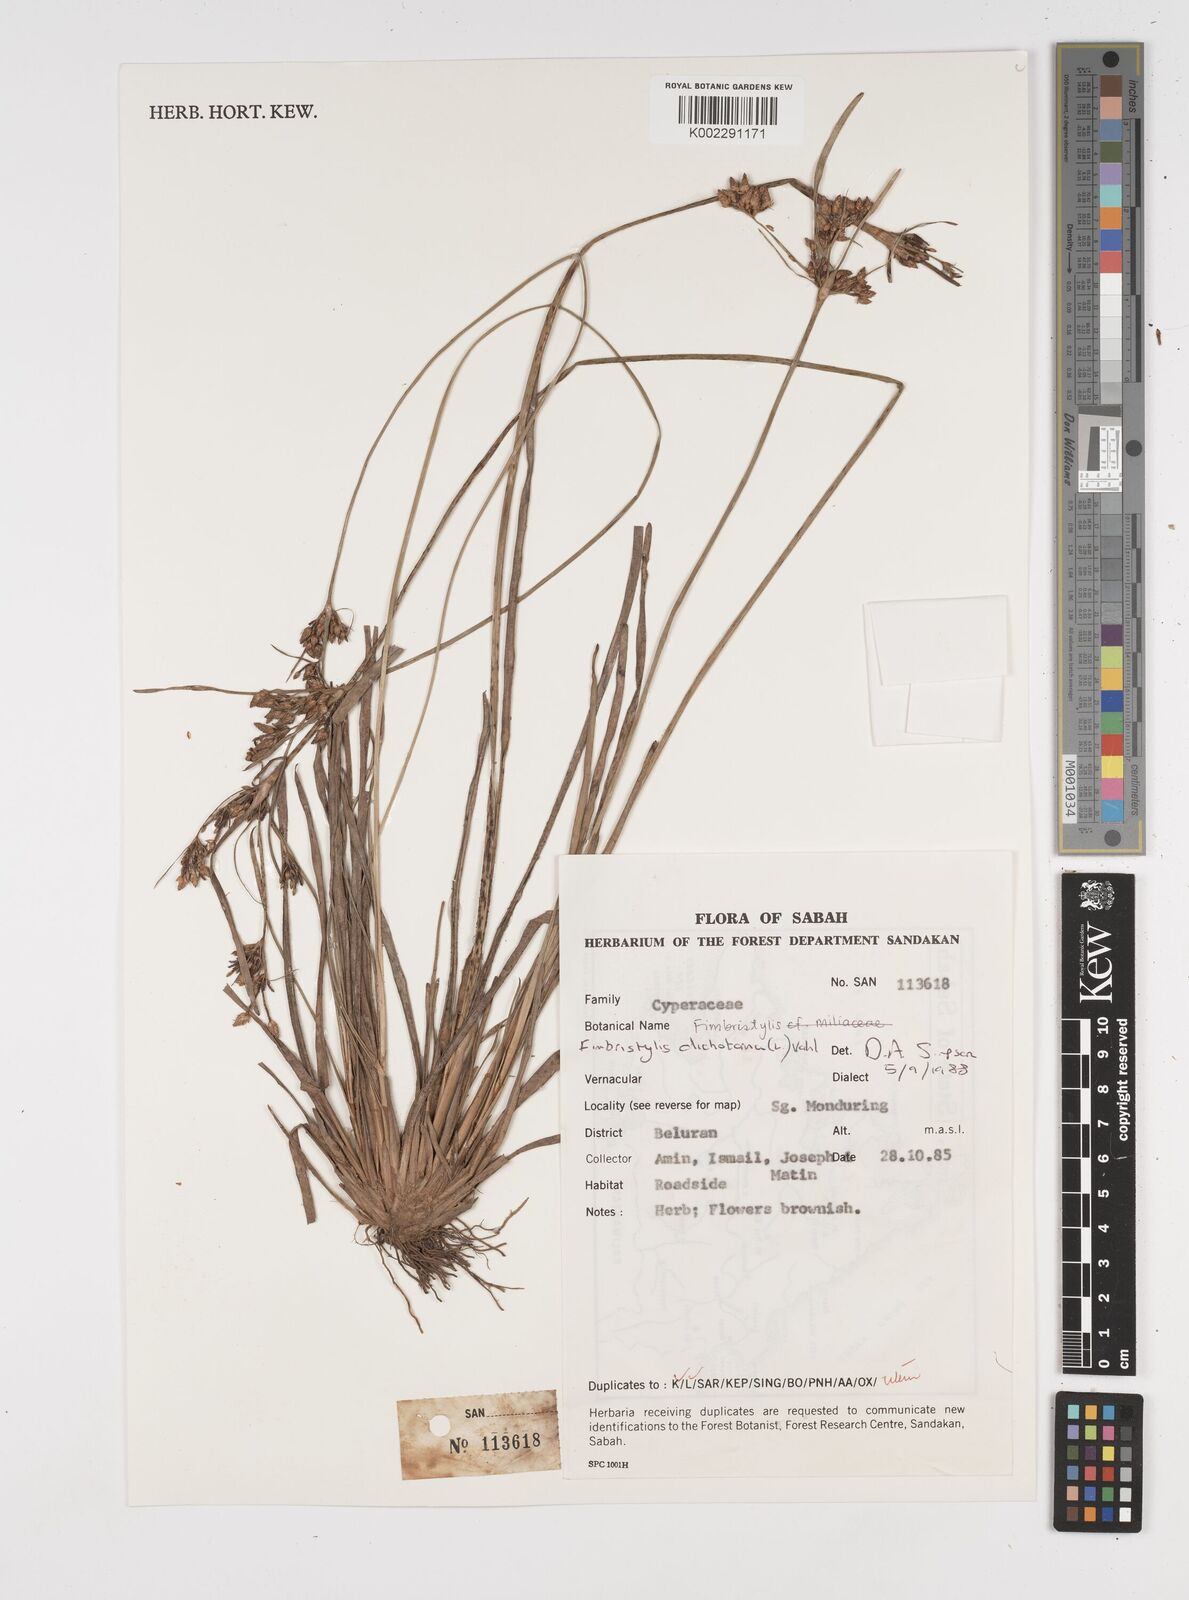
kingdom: Plantae
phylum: Tracheophyta
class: Liliopsida
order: Poales
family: Cyperaceae
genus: Fimbristylis
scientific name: Fimbristylis dichotoma
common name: Forked fimbry
